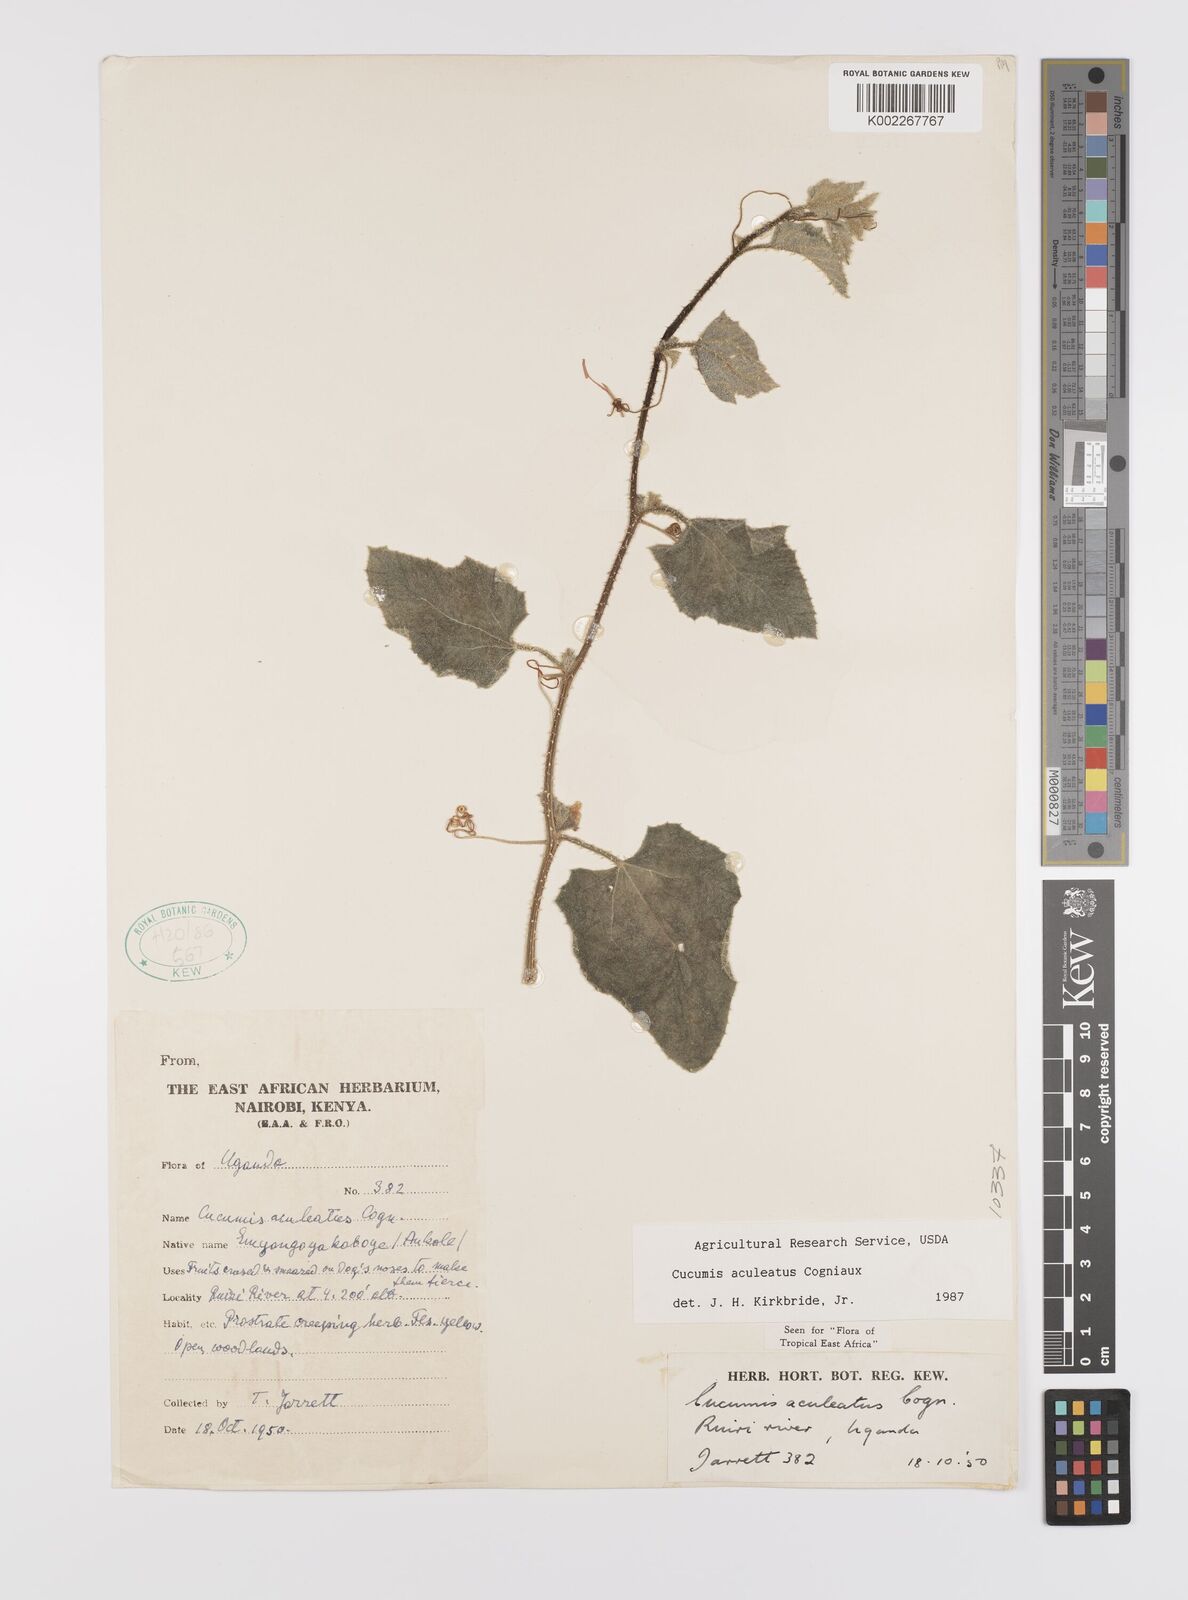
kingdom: Plantae
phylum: Tracheophyta
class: Magnoliopsida
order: Cucurbitales
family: Cucurbitaceae
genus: Cucumis
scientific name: Cucumis aculeatus
